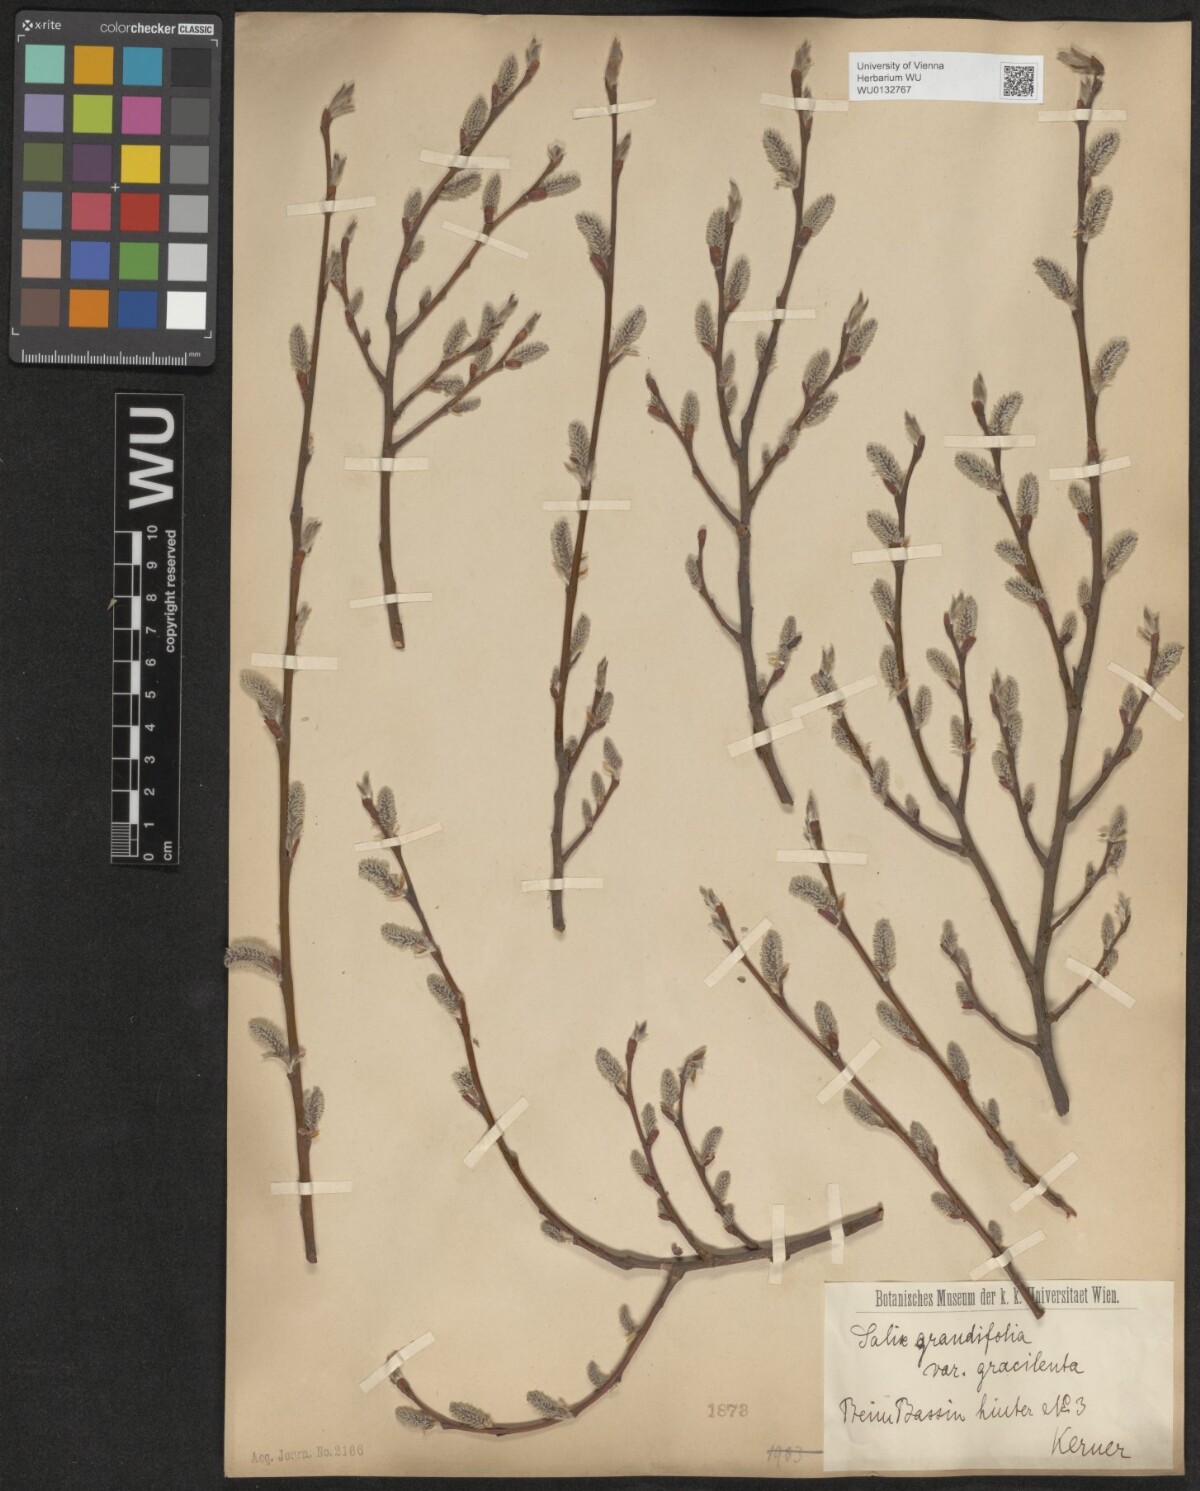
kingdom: Plantae
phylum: Tracheophyta
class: Magnoliopsida
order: Malpighiales
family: Salicaceae
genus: Salix
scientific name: Salix appendiculata
